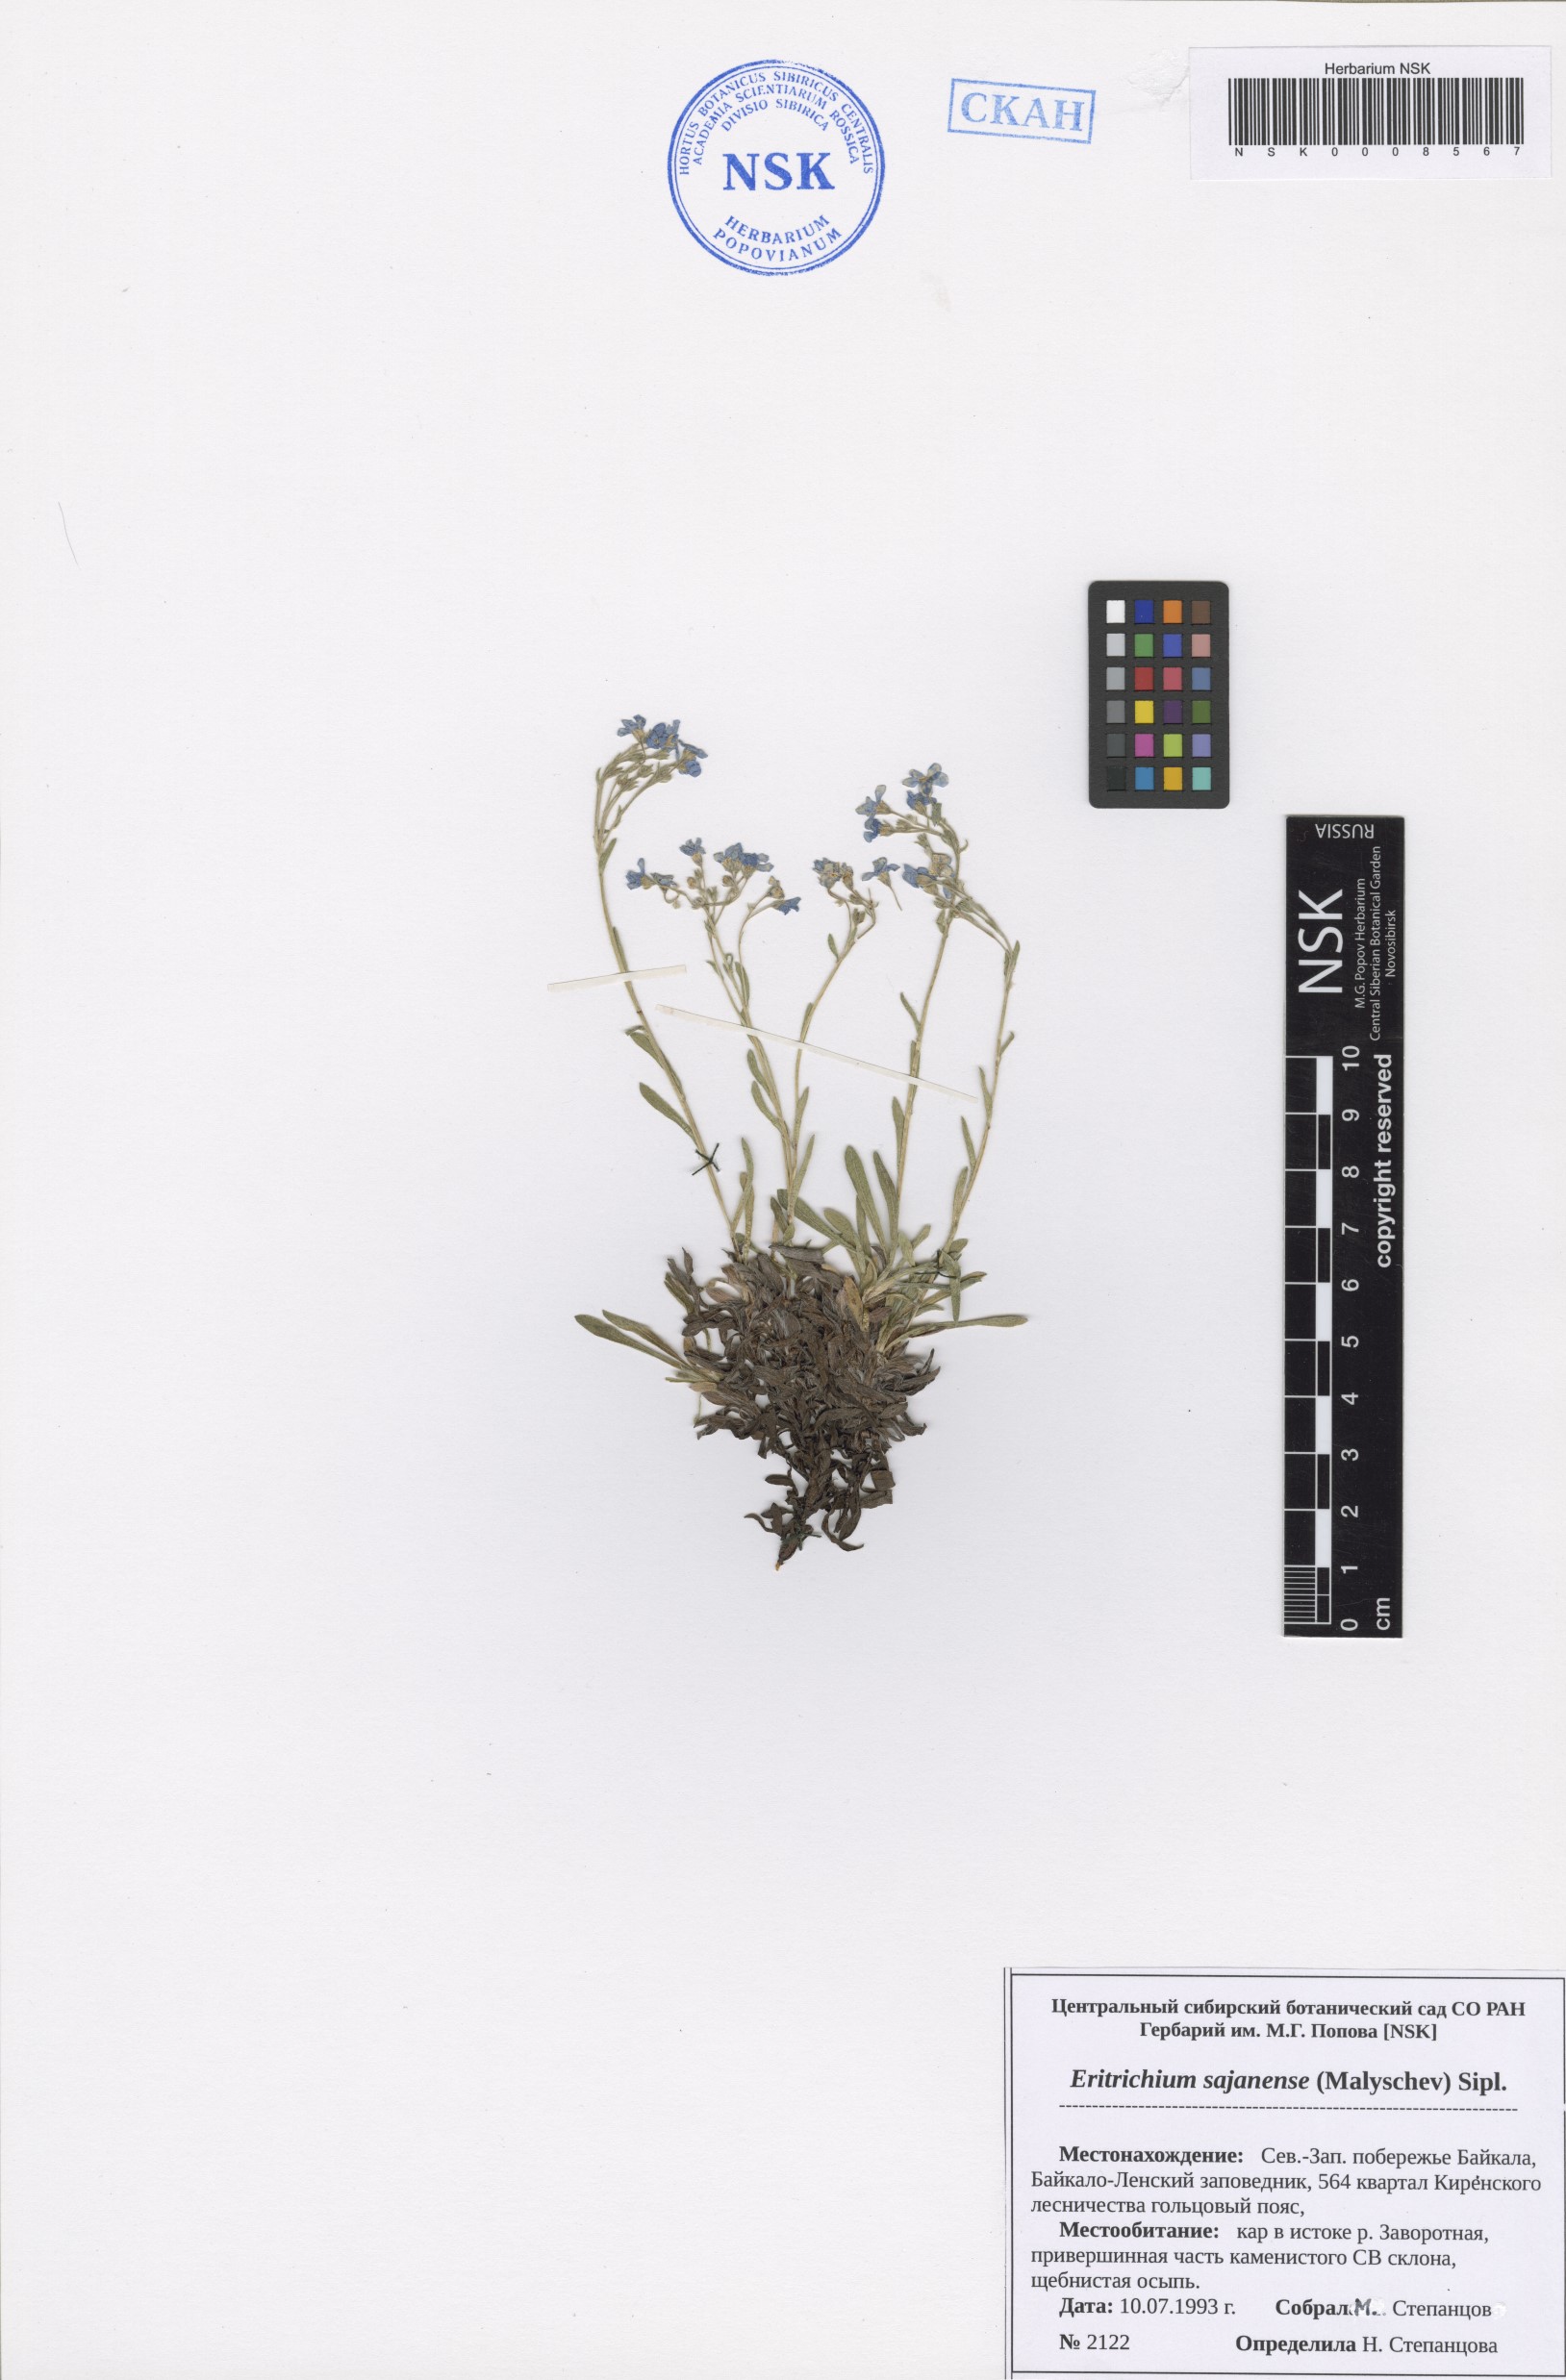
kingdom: Plantae
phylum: Tracheophyta
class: Magnoliopsida
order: Boraginales
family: Boraginaceae
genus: Eritrichium
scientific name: Eritrichium sajanense
